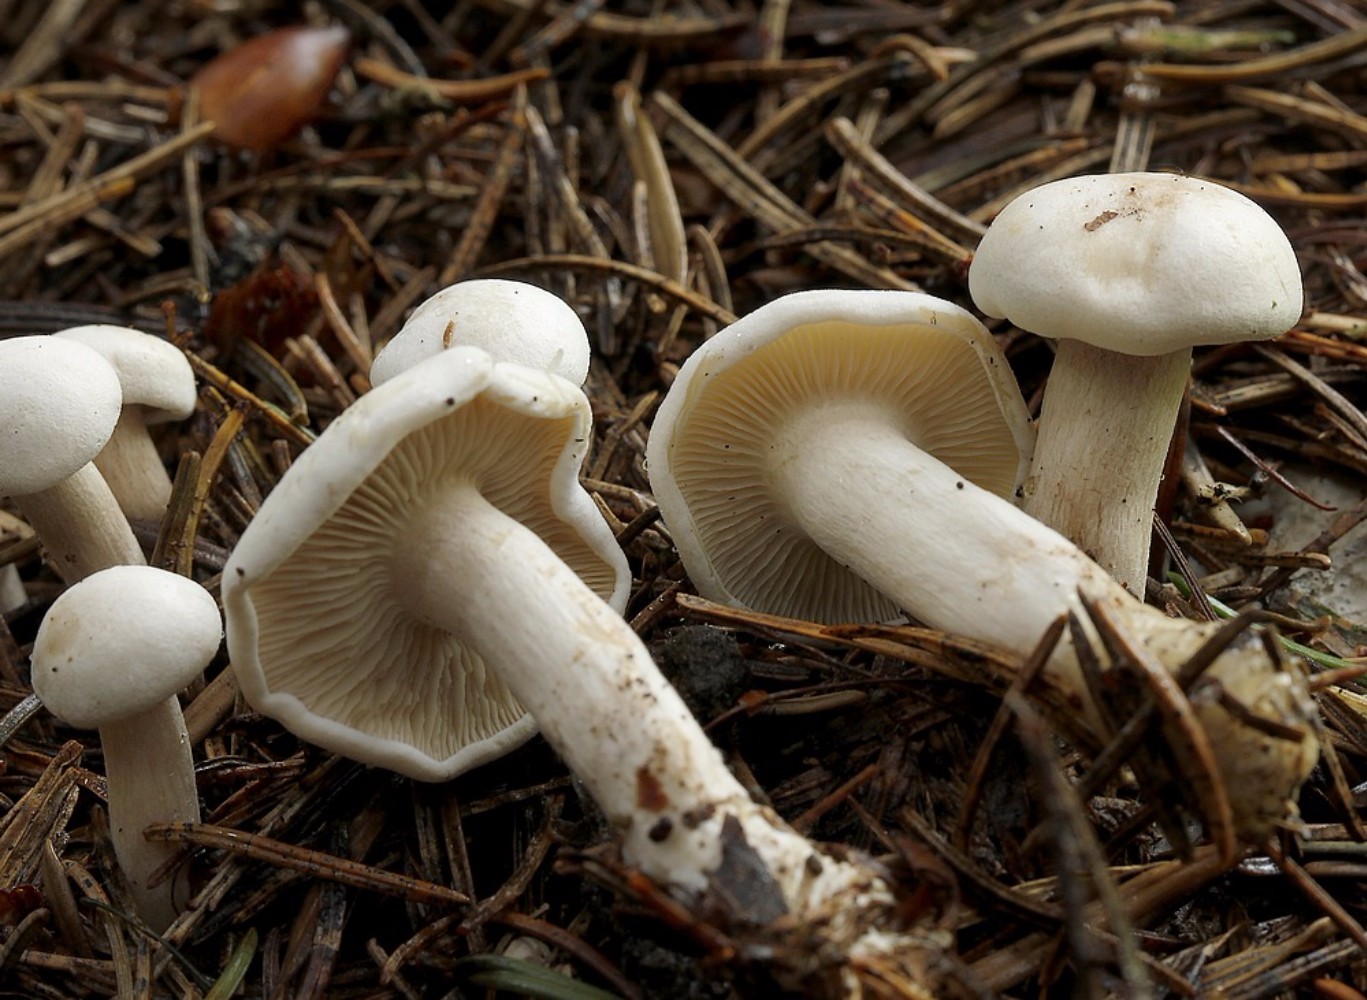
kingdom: Fungi
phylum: Basidiomycota
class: Agaricomycetes
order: Agaricales
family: Tricholomataceae
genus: Clitocybe
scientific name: Clitocybe
